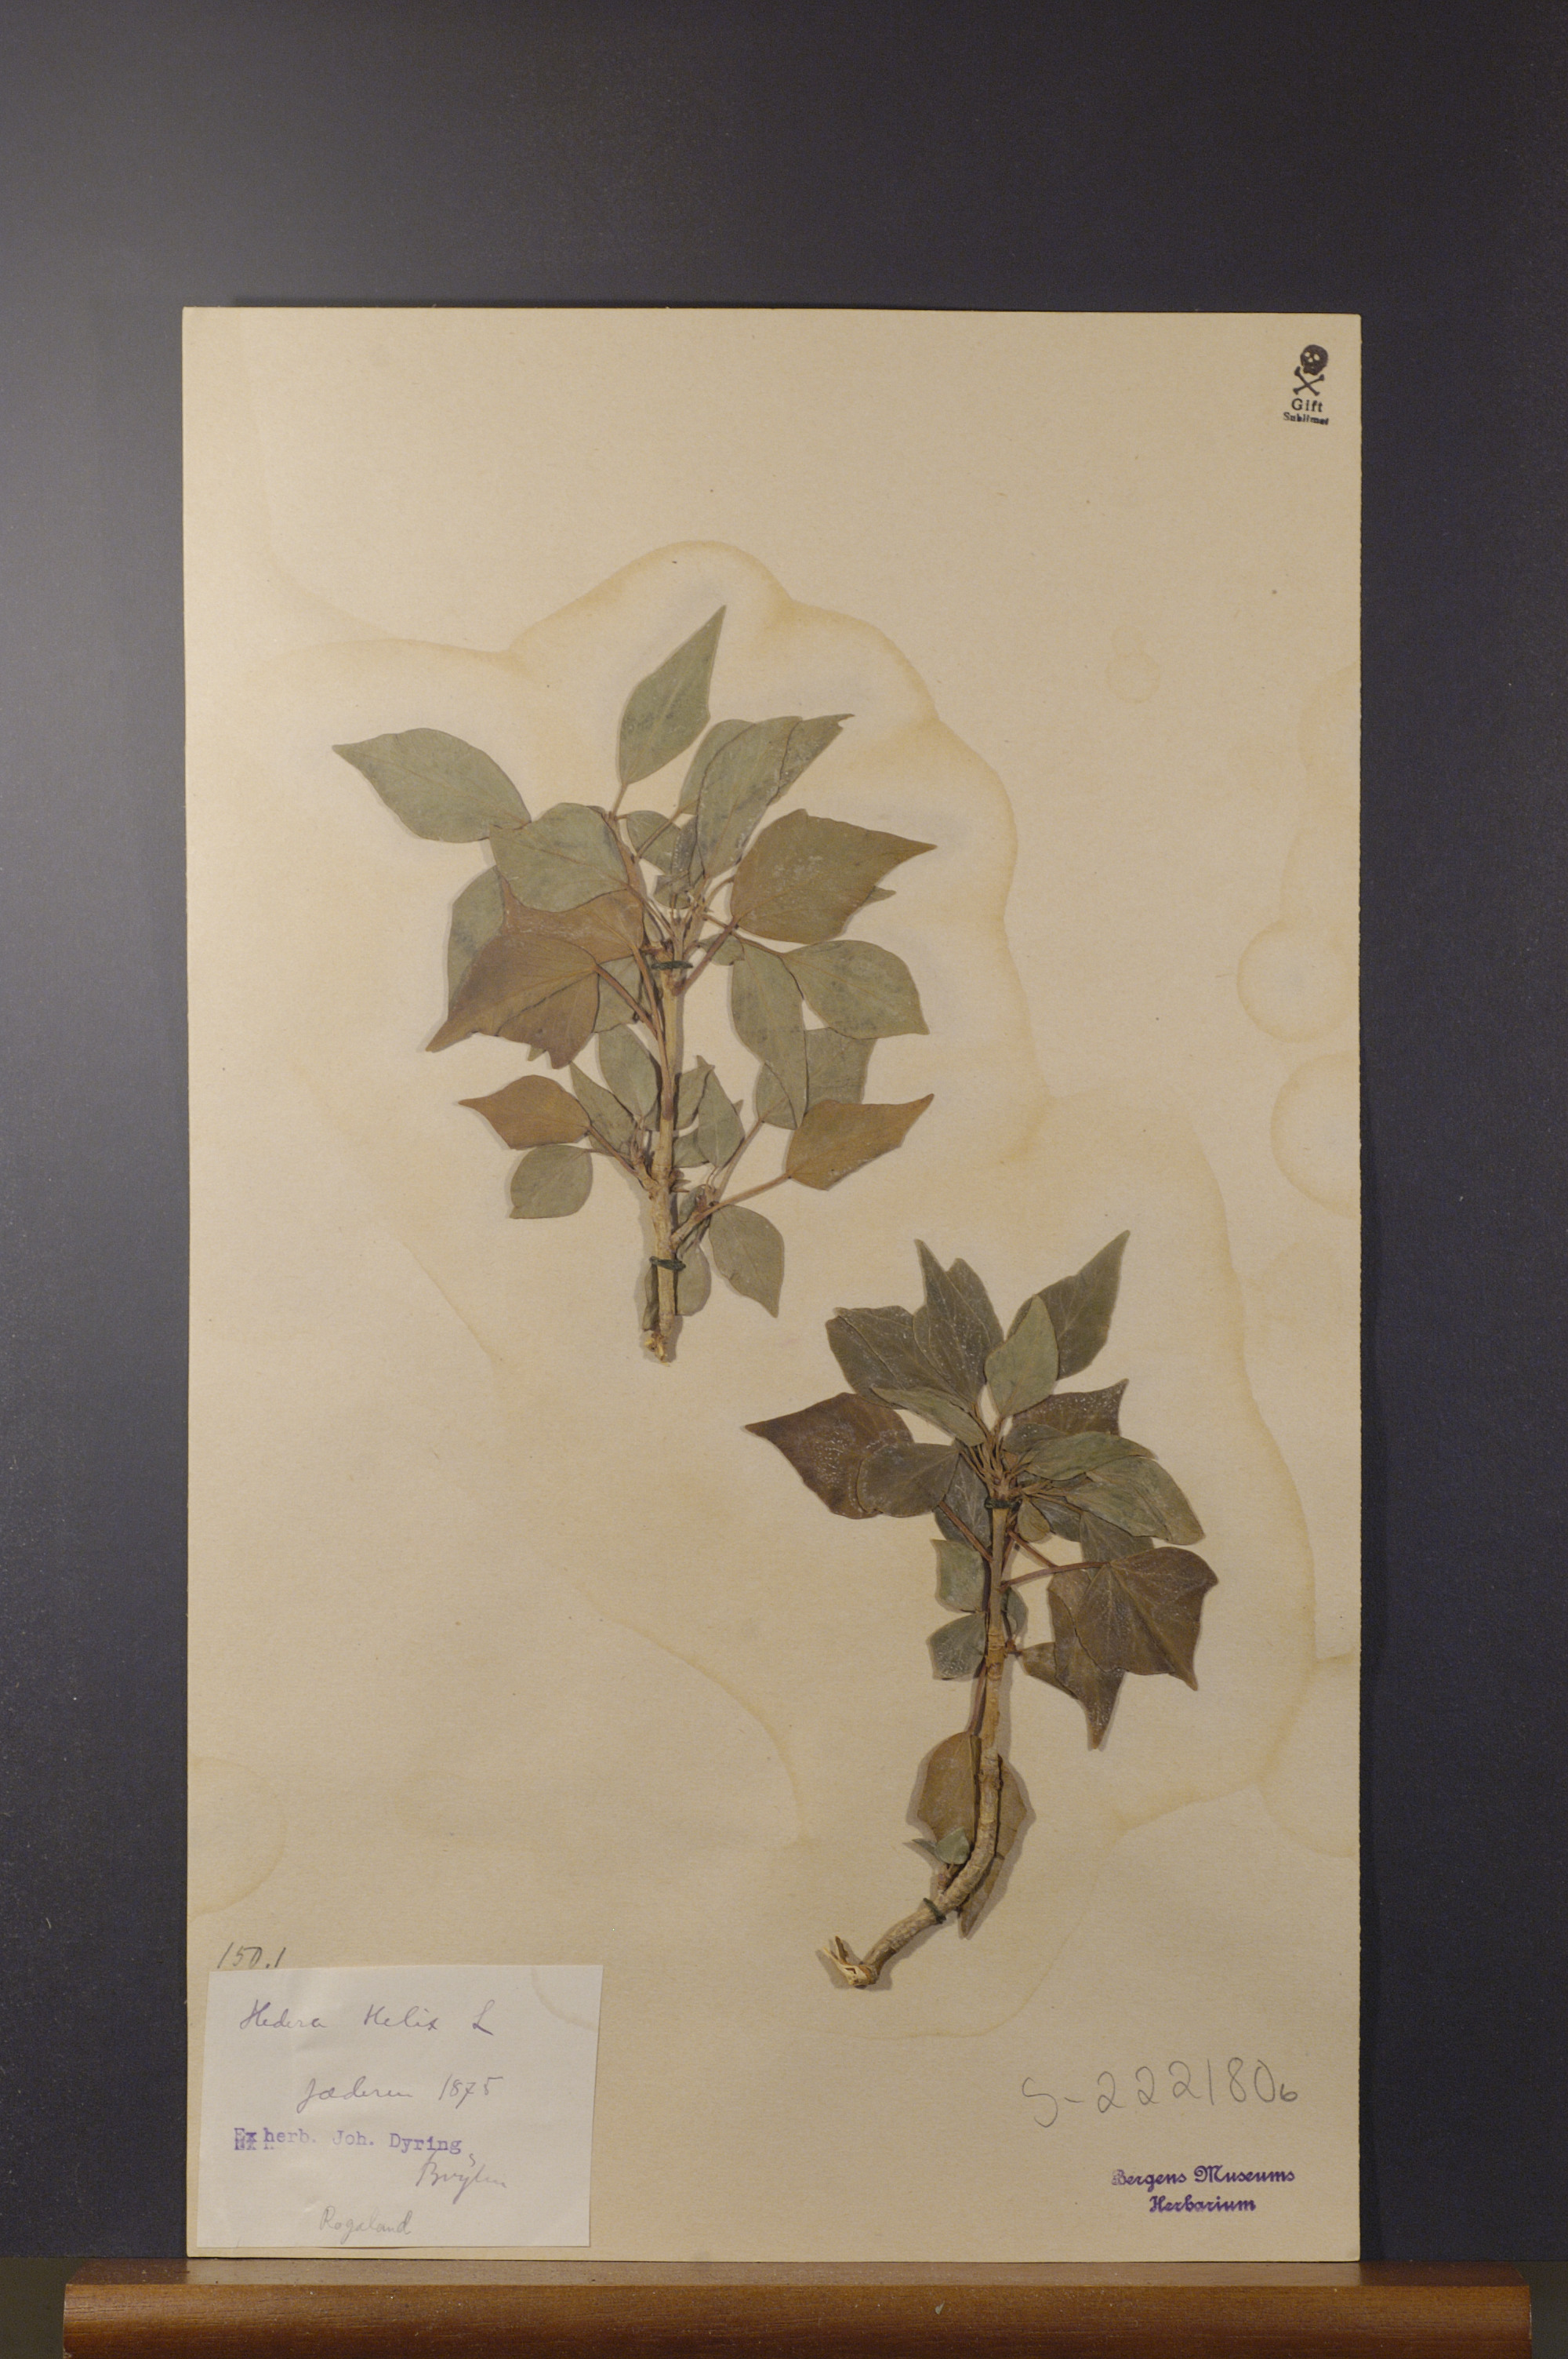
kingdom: Plantae
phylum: Tracheophyta
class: Magnoliopsida
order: Apiales
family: Araliaceae
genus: Hedera
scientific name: Hedera helix
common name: Ivy
